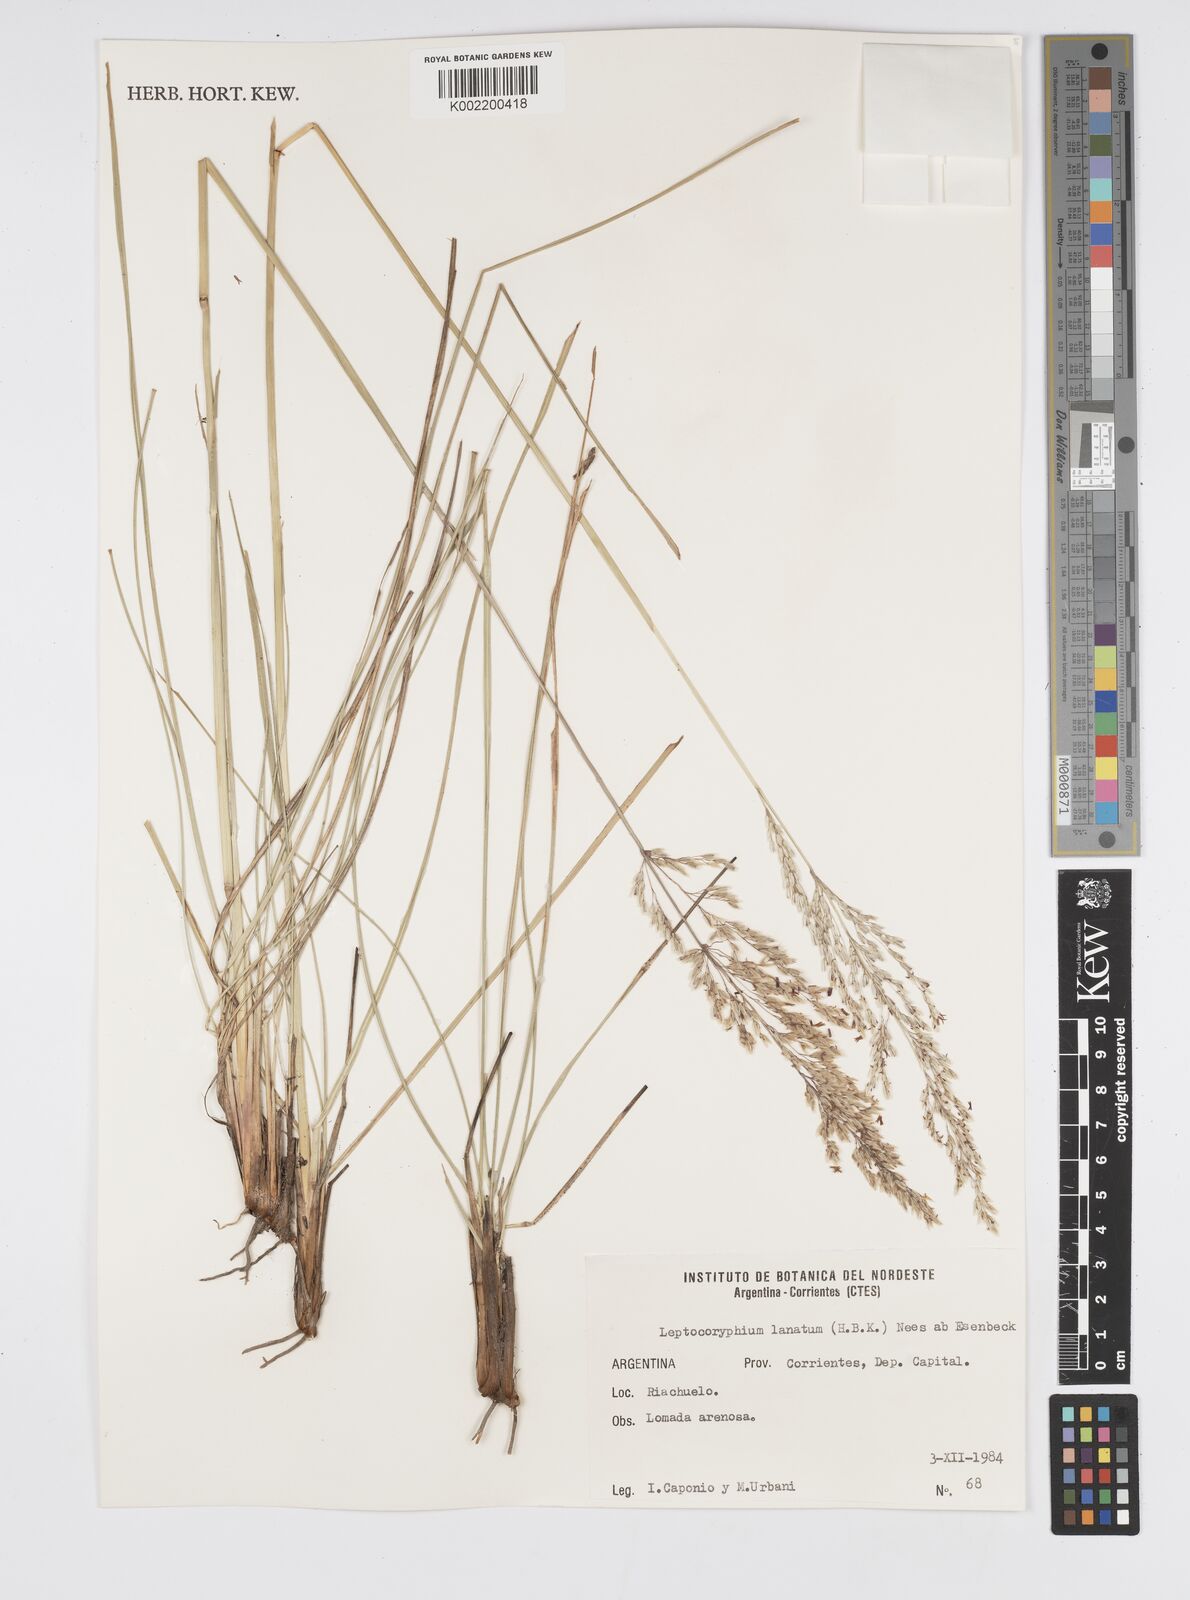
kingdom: Plantae
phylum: Tracheophyta
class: Liliopsida
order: Poales
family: Poaceae
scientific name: Poaceae
